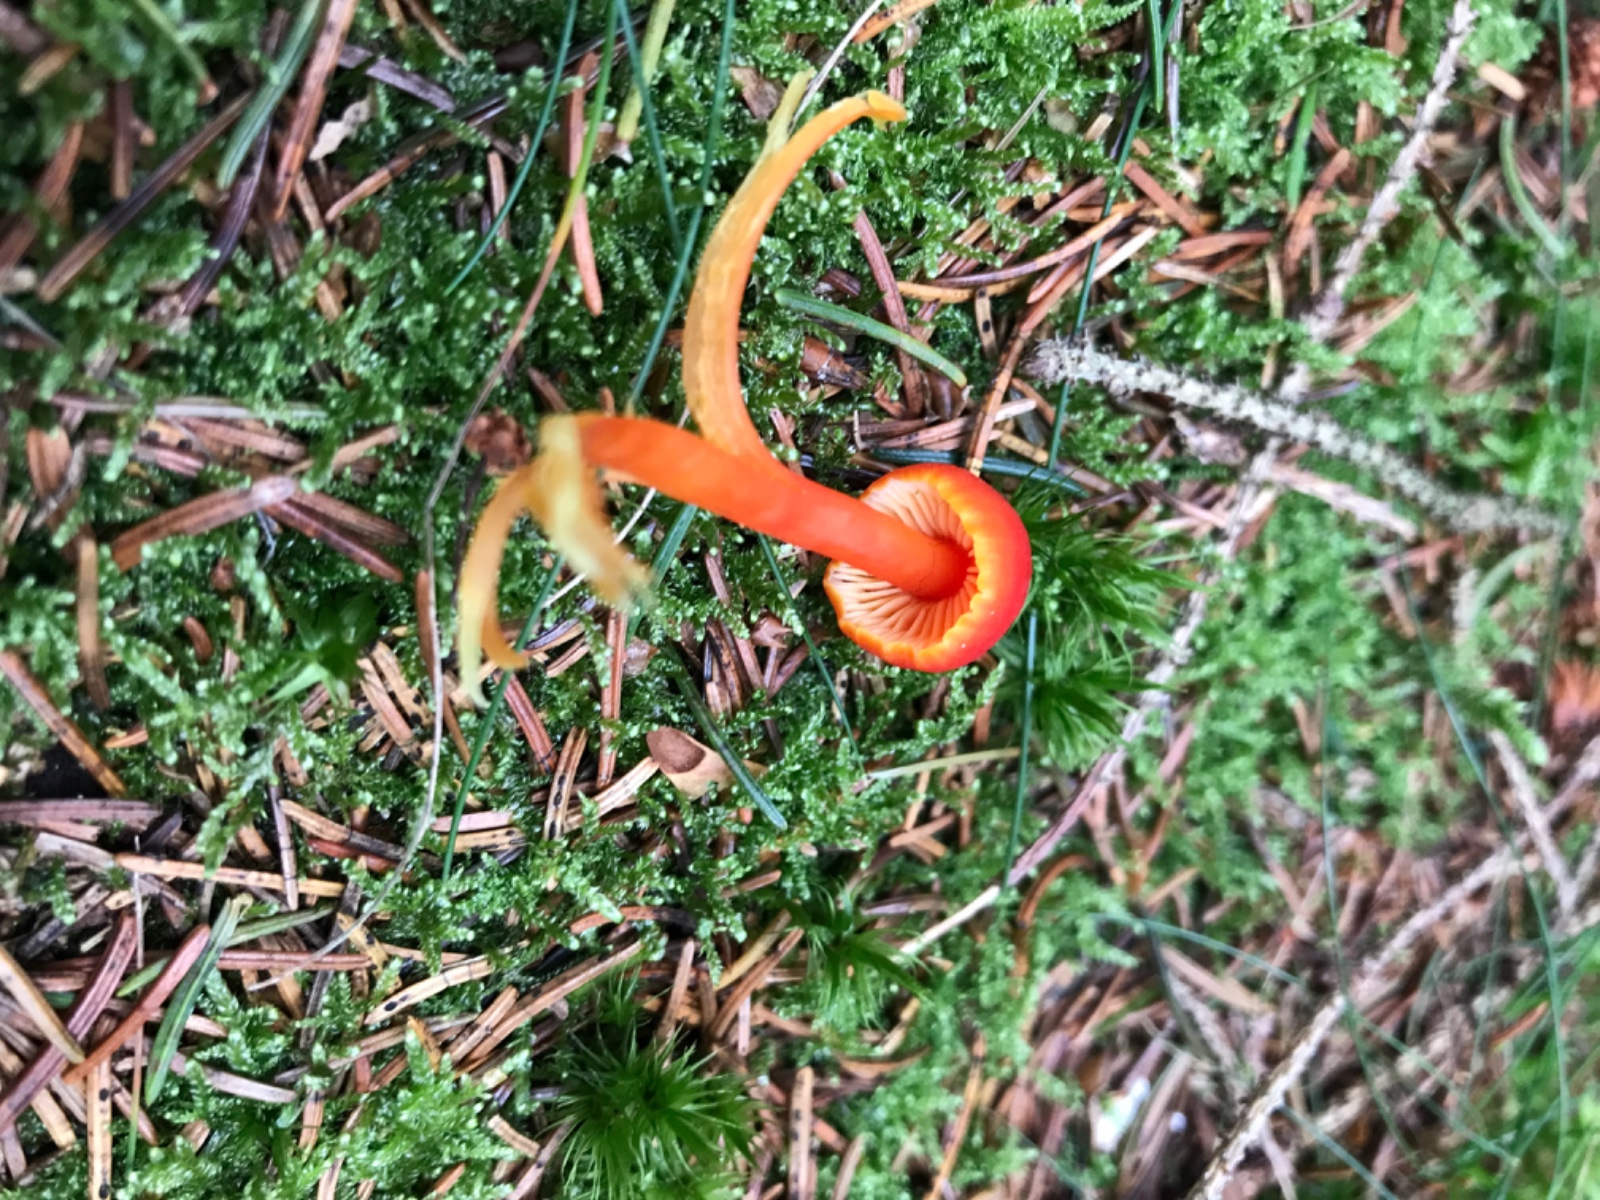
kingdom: Fungi
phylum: Basidiomycota
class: Agaricomycetes
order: Agaricales
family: Hygrophoraceae
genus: Hygrocybe
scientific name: Hygrocybe miniata
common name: mønje-vokshat
